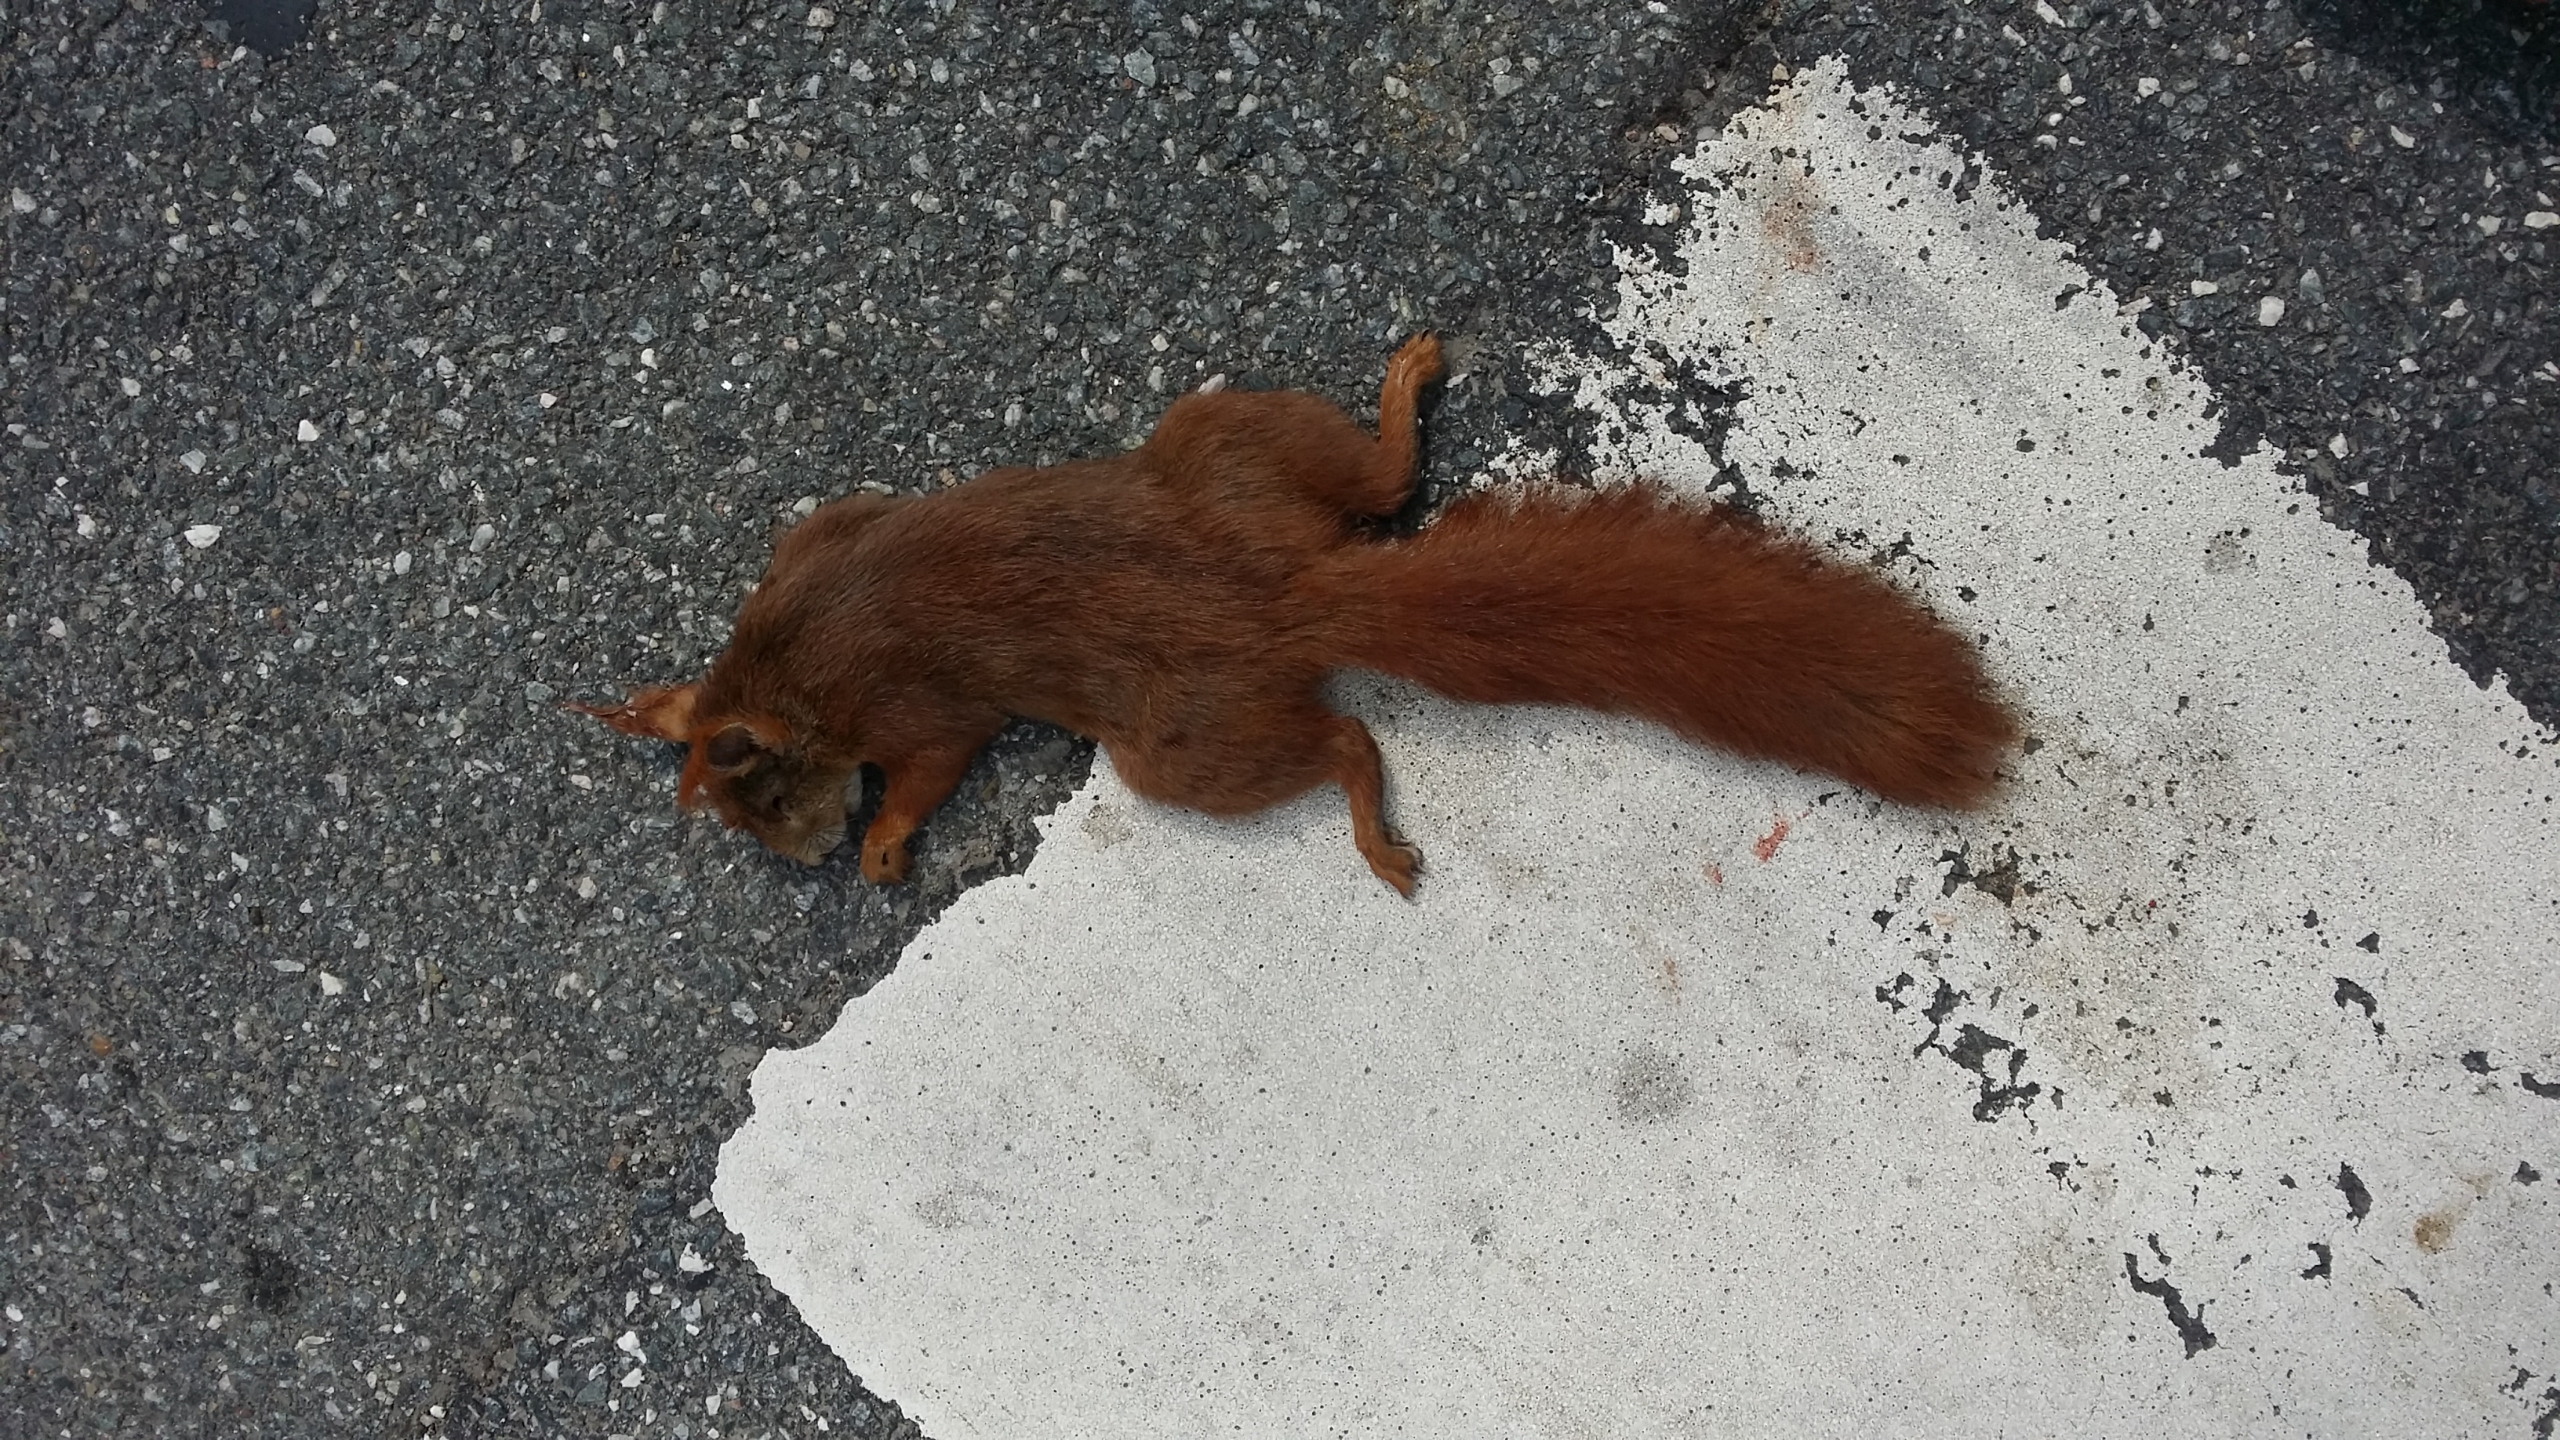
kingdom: Animalia
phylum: Chordata
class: Mammalia
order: Rodentia
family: Sciuridae
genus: Sciurus
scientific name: Sciurus vulgaris
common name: Egern
